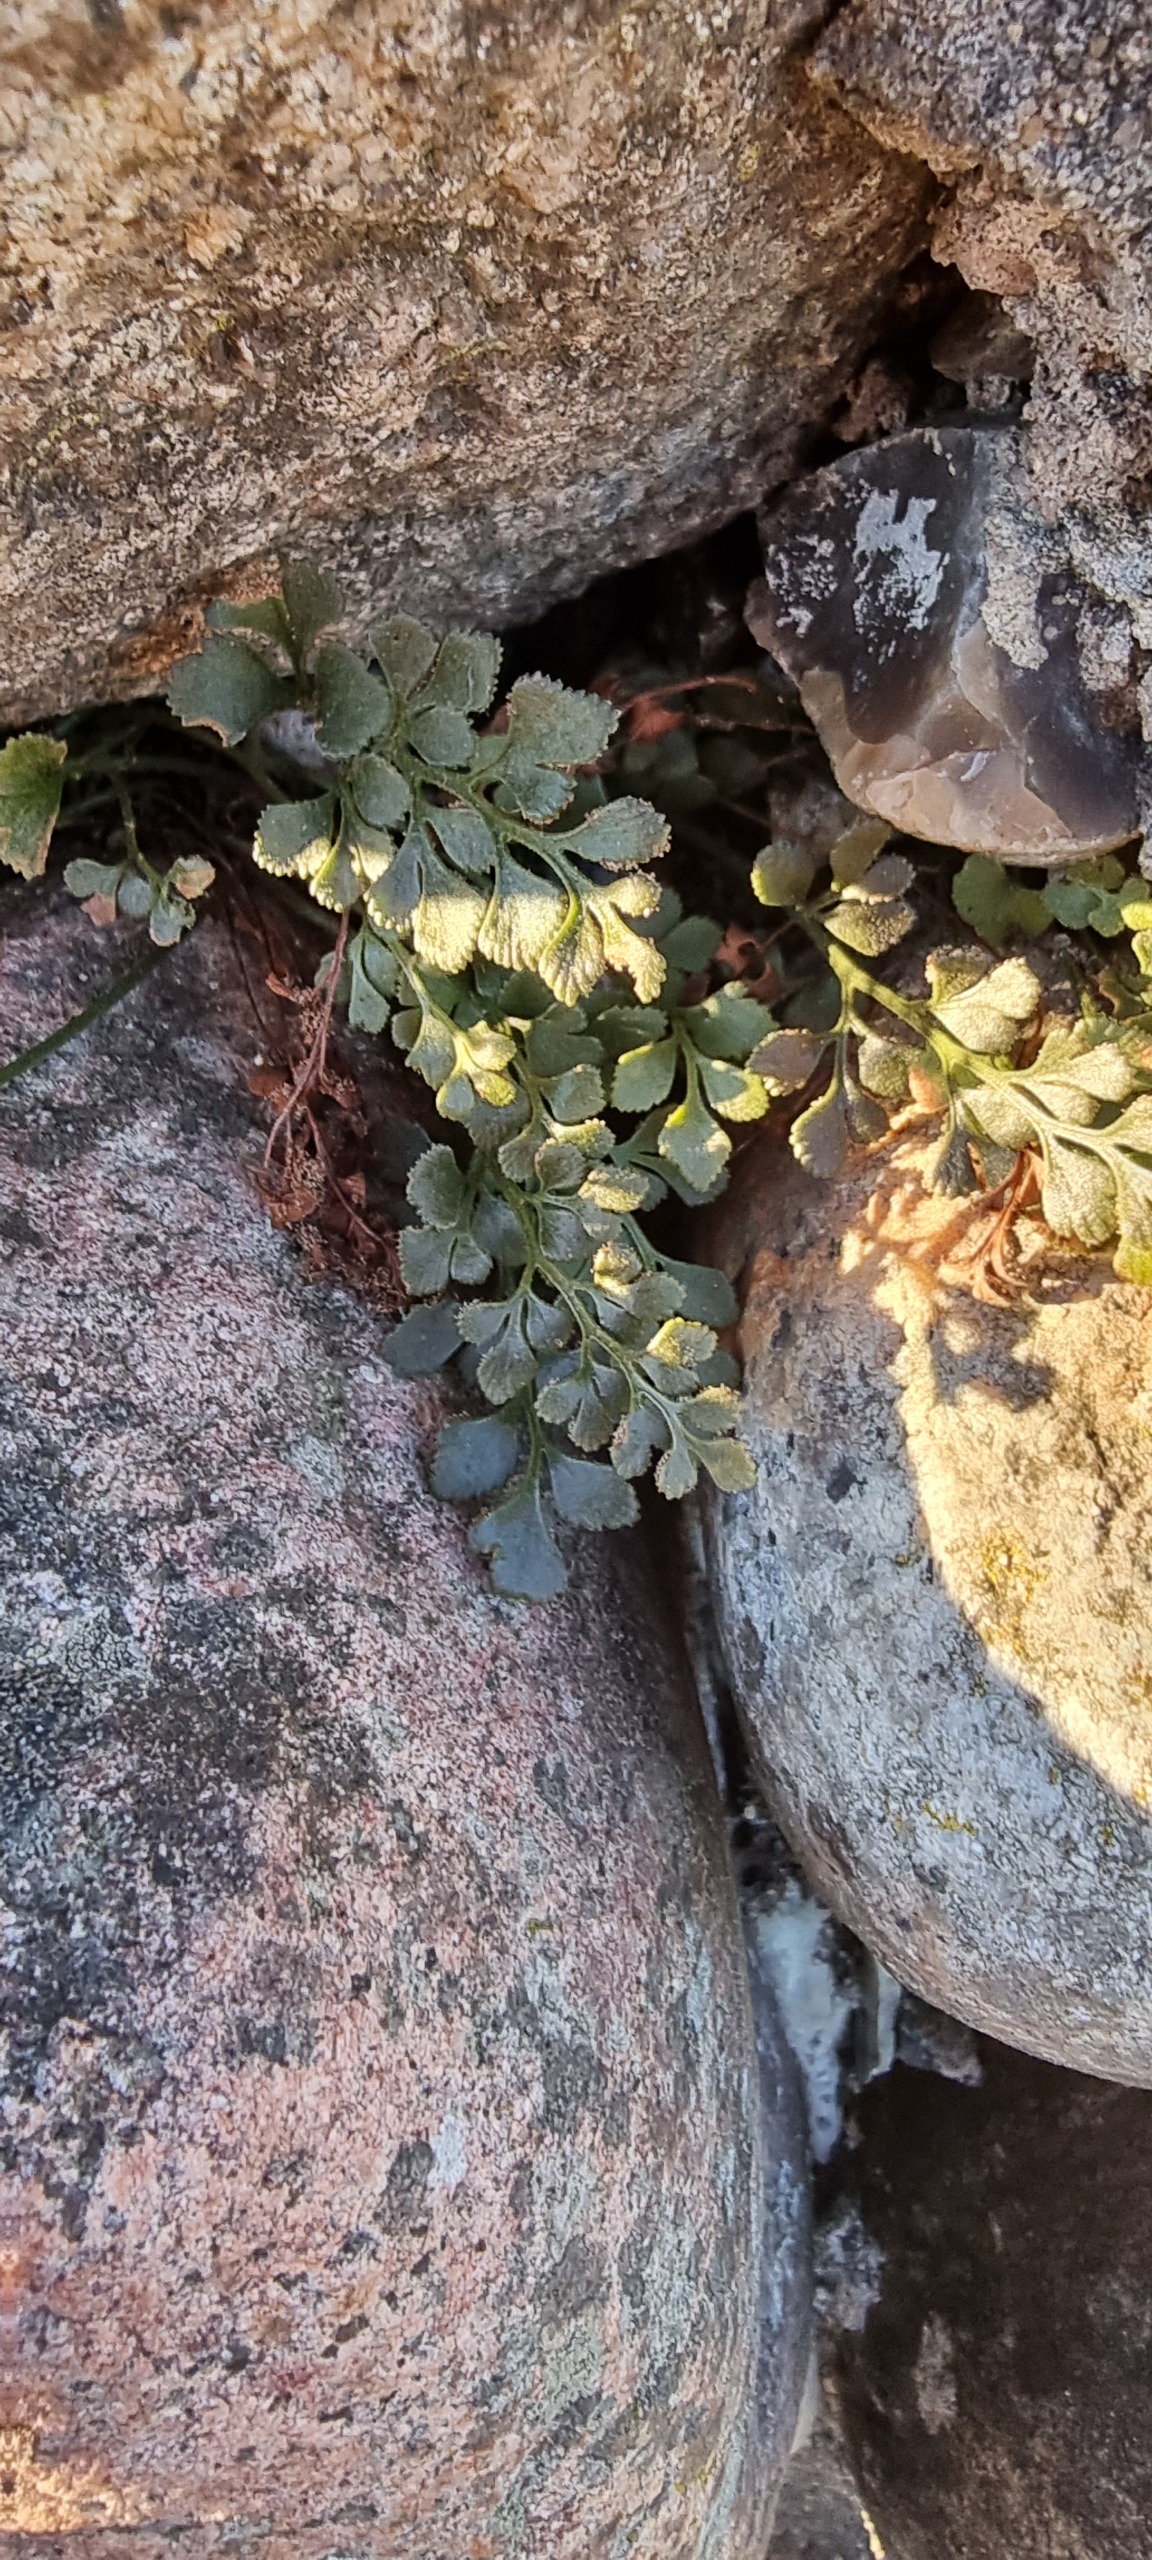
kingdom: Plantae
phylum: Tracheophyta
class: Polypodiopsida
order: Polypodiales
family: Aspleniaceae
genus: Asplenium
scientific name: Asplenium ruta-muraria
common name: Murrude
